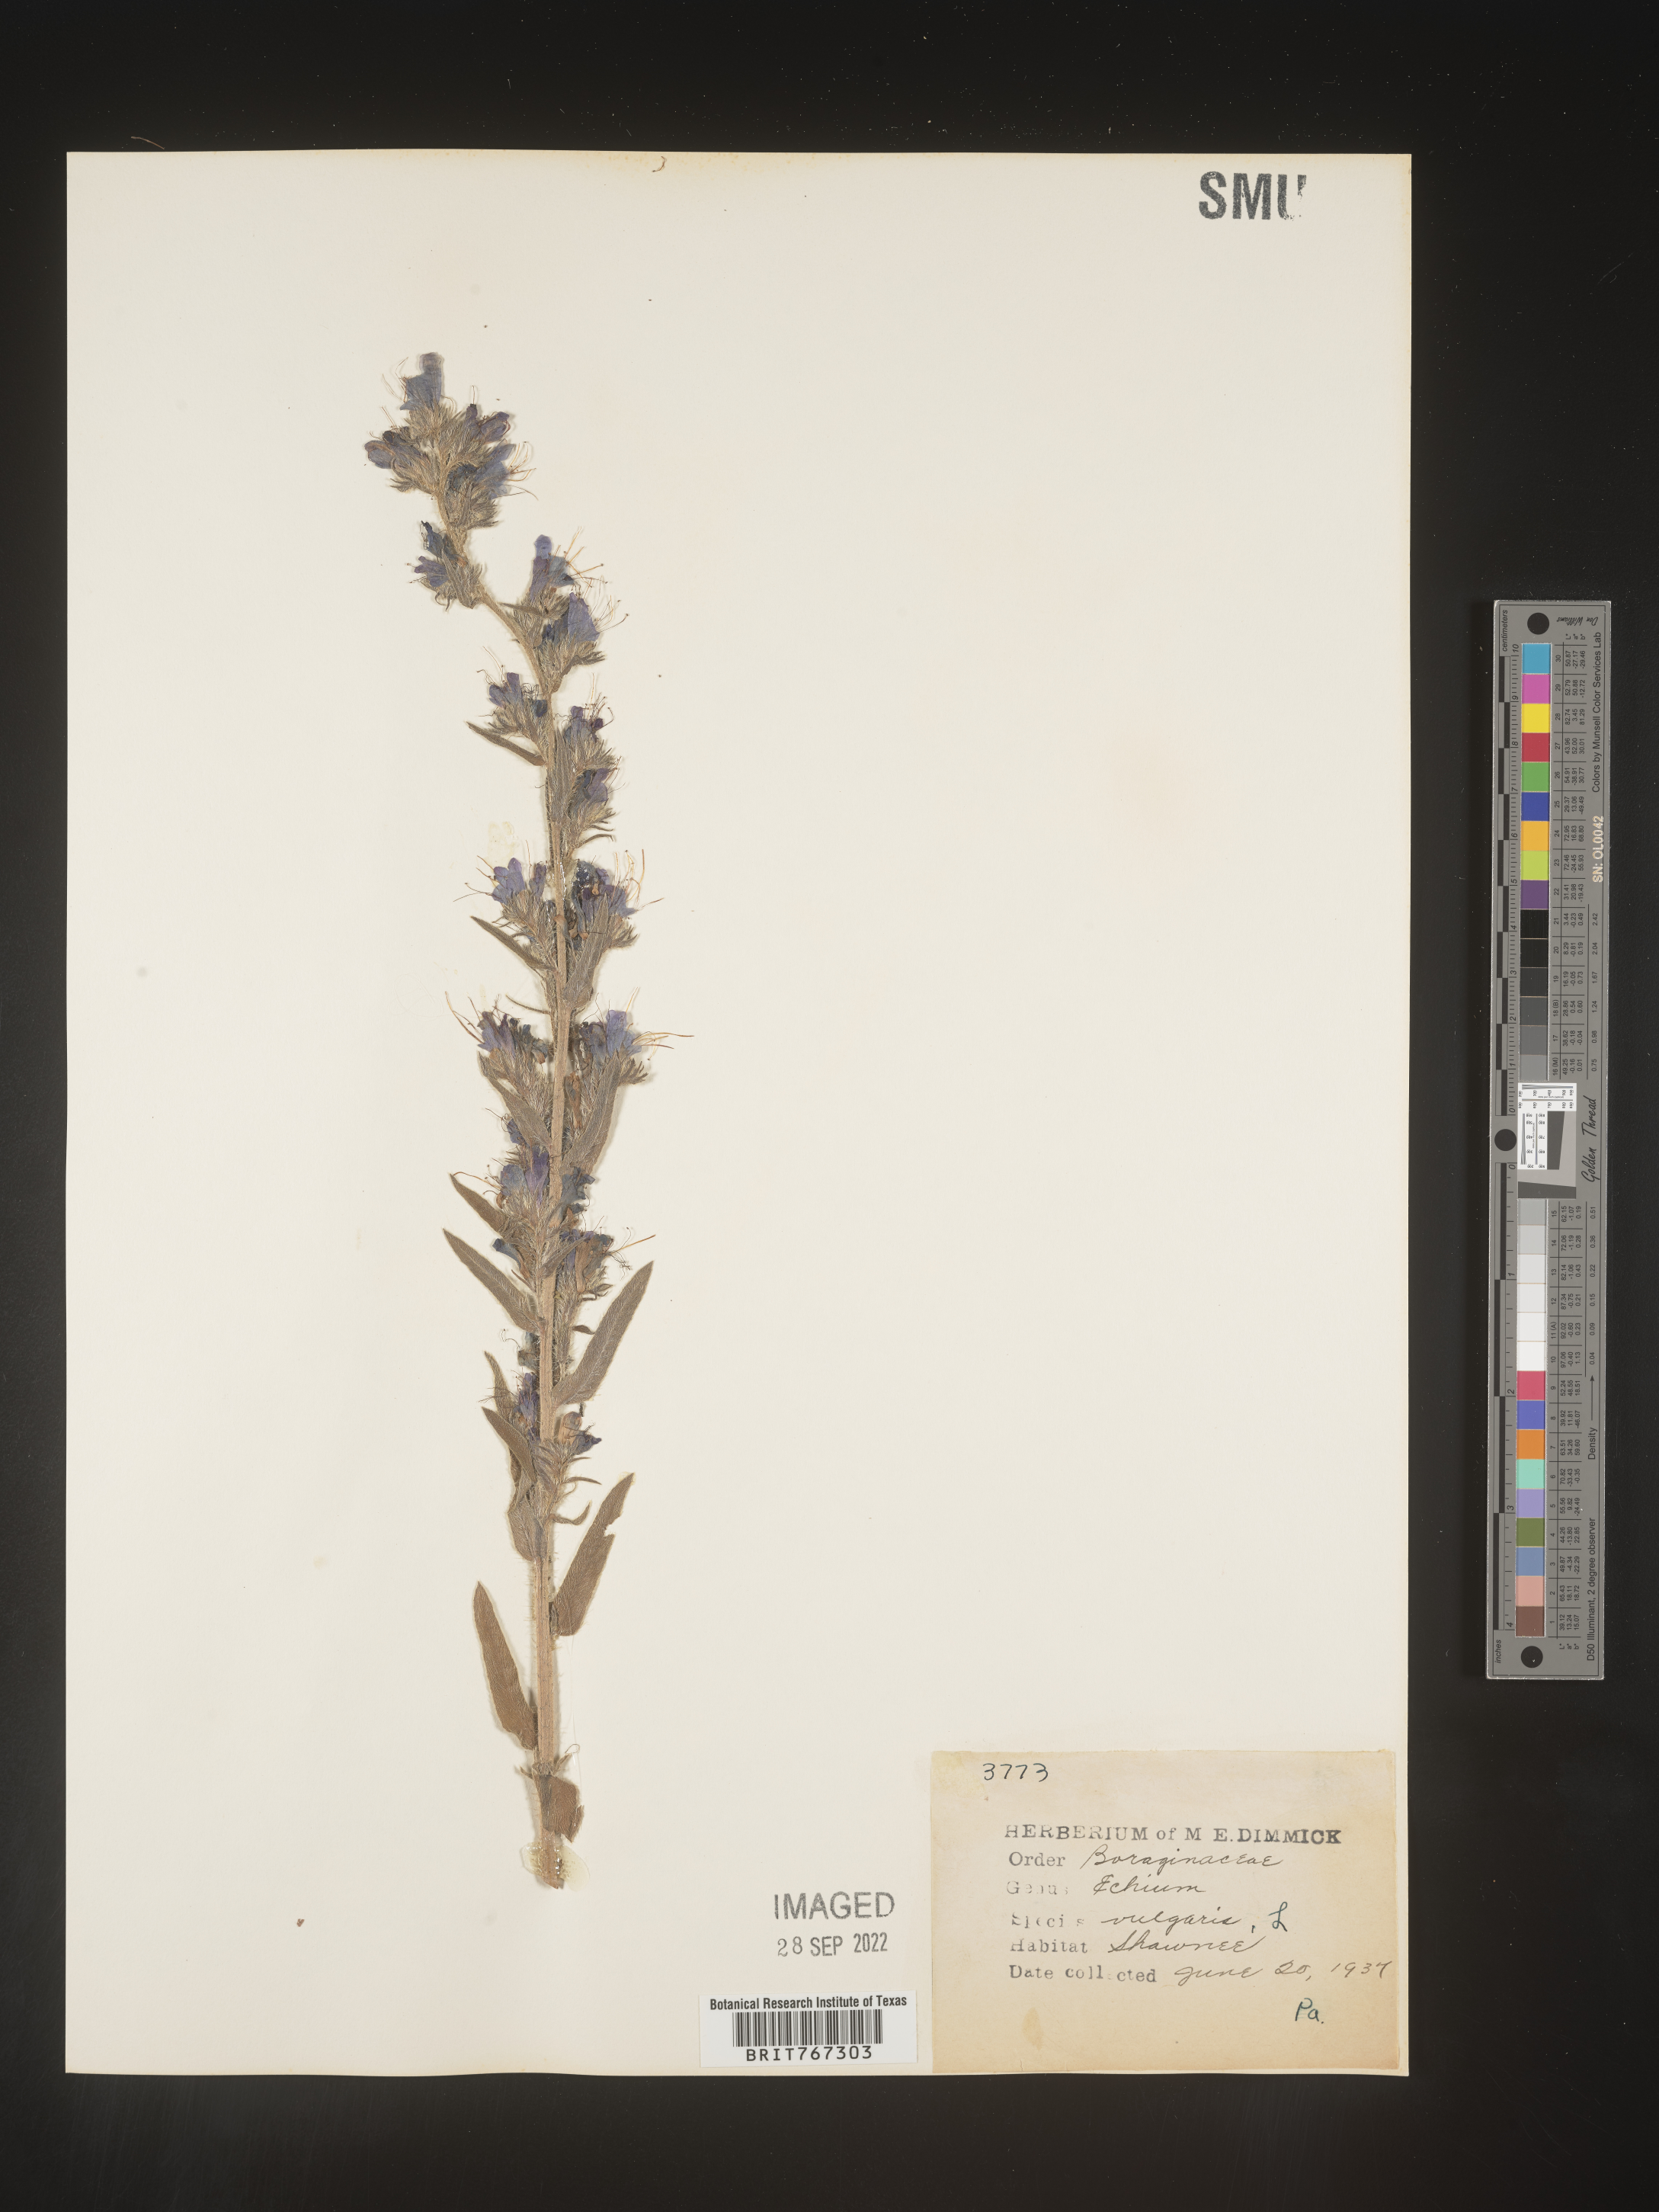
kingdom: Plantae
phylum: Tracheophyta
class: Magnoliopsida
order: Boraginales
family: Boraginaceae
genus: Echium
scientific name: Echium
